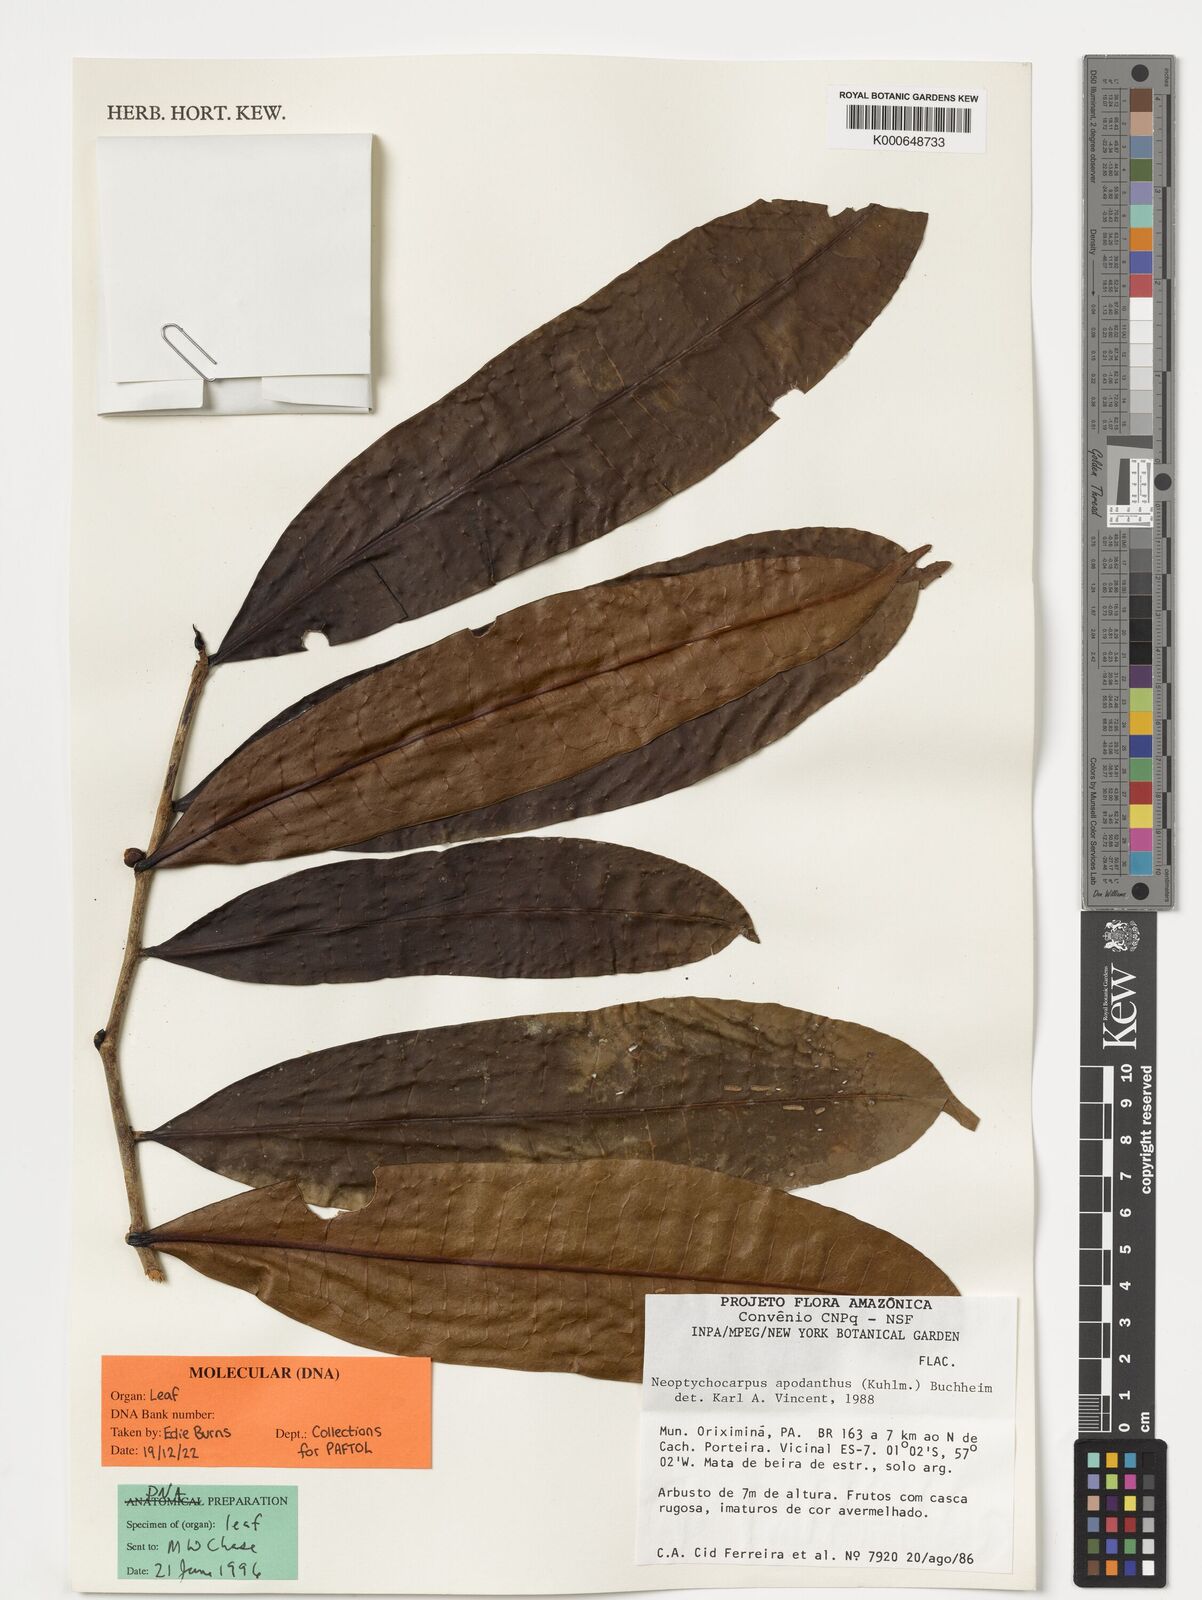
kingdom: Plantae
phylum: Tracheophyta
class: Magnoliopsida
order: Malpighiales
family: Salicaceae
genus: Casearia
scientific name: Casearia apodantha
